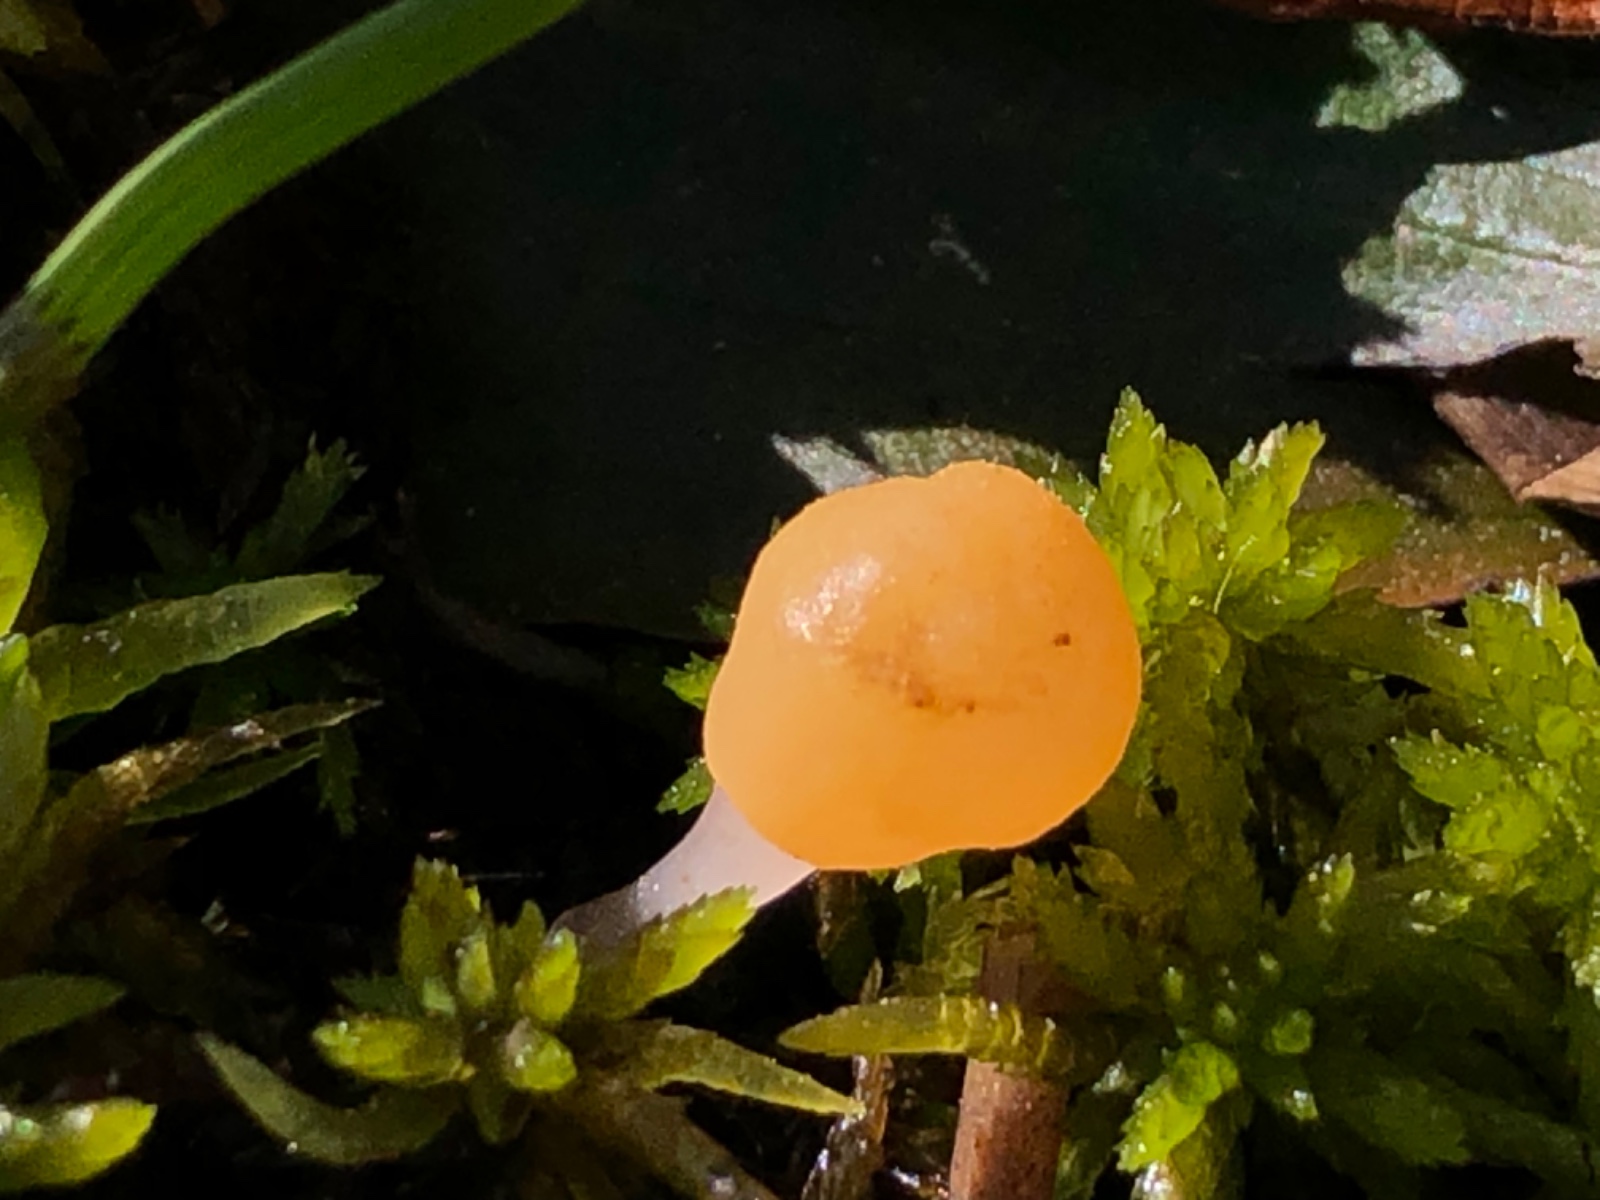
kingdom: Fungi
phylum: Ascomycota
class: Leotiomycetes
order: Helotiales
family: Cenangiaceae
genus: Mitrula
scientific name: Mitrula paludosa
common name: gul nøkketunge
